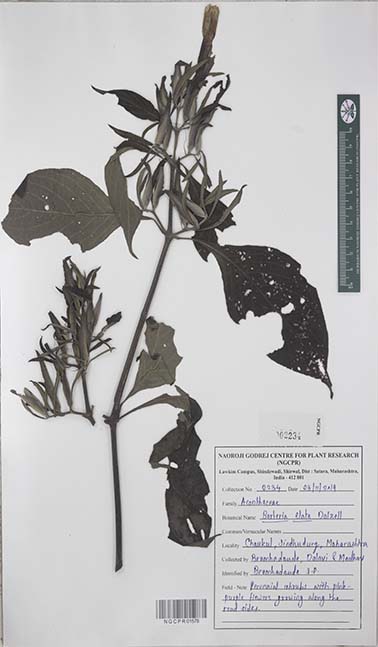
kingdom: Plantae
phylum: Tracheophyta
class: Magnoliopsida
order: Lamiales
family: Acanthaceae
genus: Barleria
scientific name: Barleria involucrata
